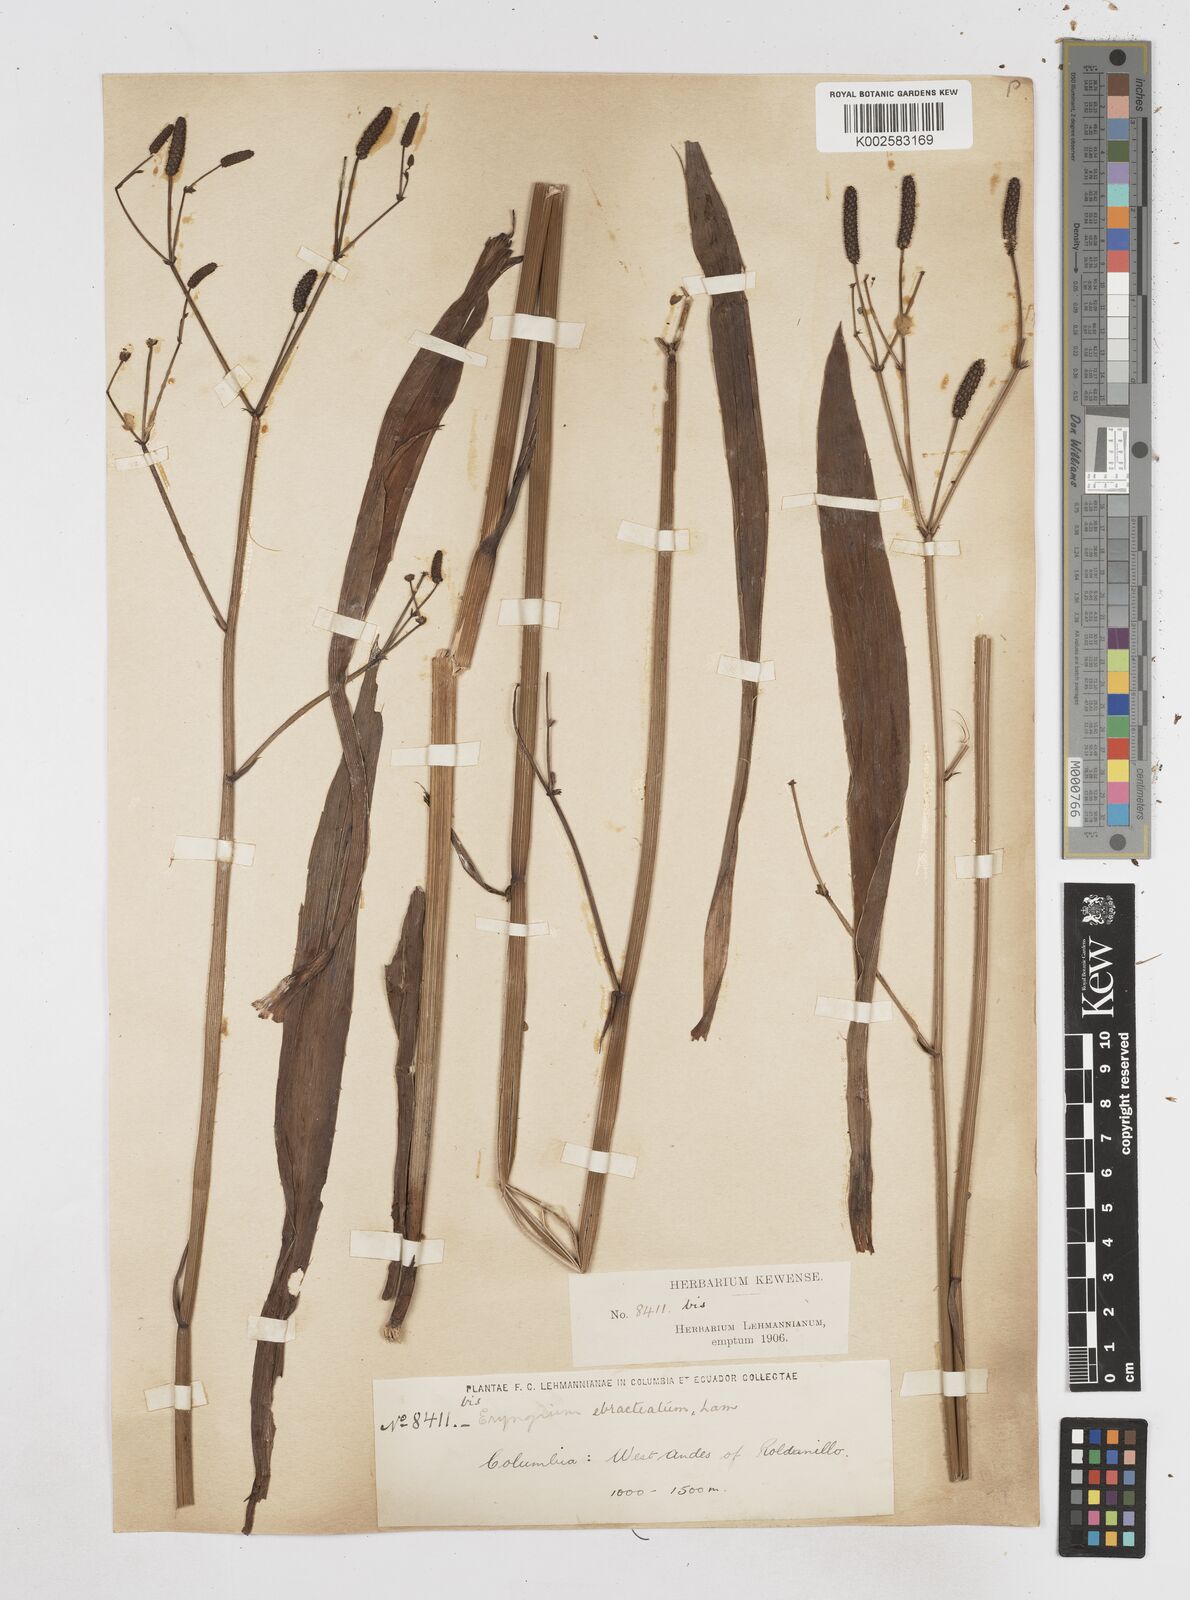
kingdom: Plantae
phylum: Tracheophyta
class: Magnoliopsida
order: Apiales
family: Apiaceae
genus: Eryngium
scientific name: Eryngium ebracteatum
